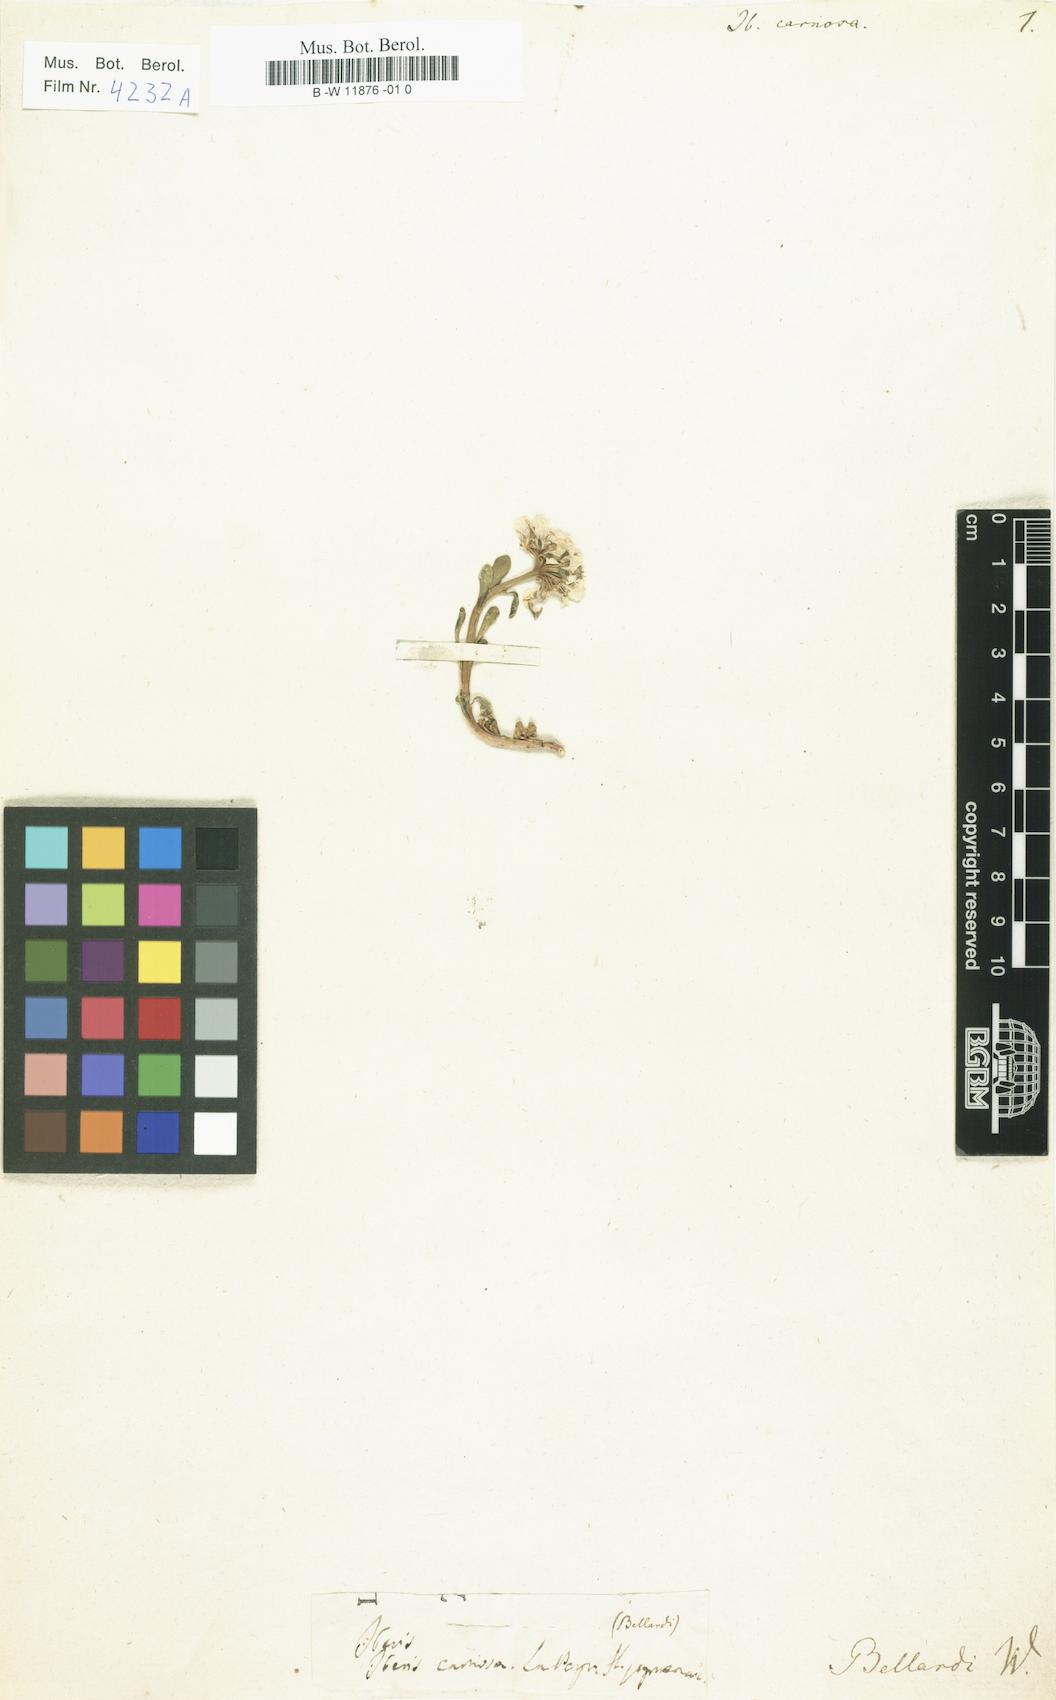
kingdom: Plantae
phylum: Tracheophyta
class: Magnoliopsida
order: Brassicales
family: Brassicaceae
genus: Iberis
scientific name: Iberis carnosa
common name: Pruit's candytuft
